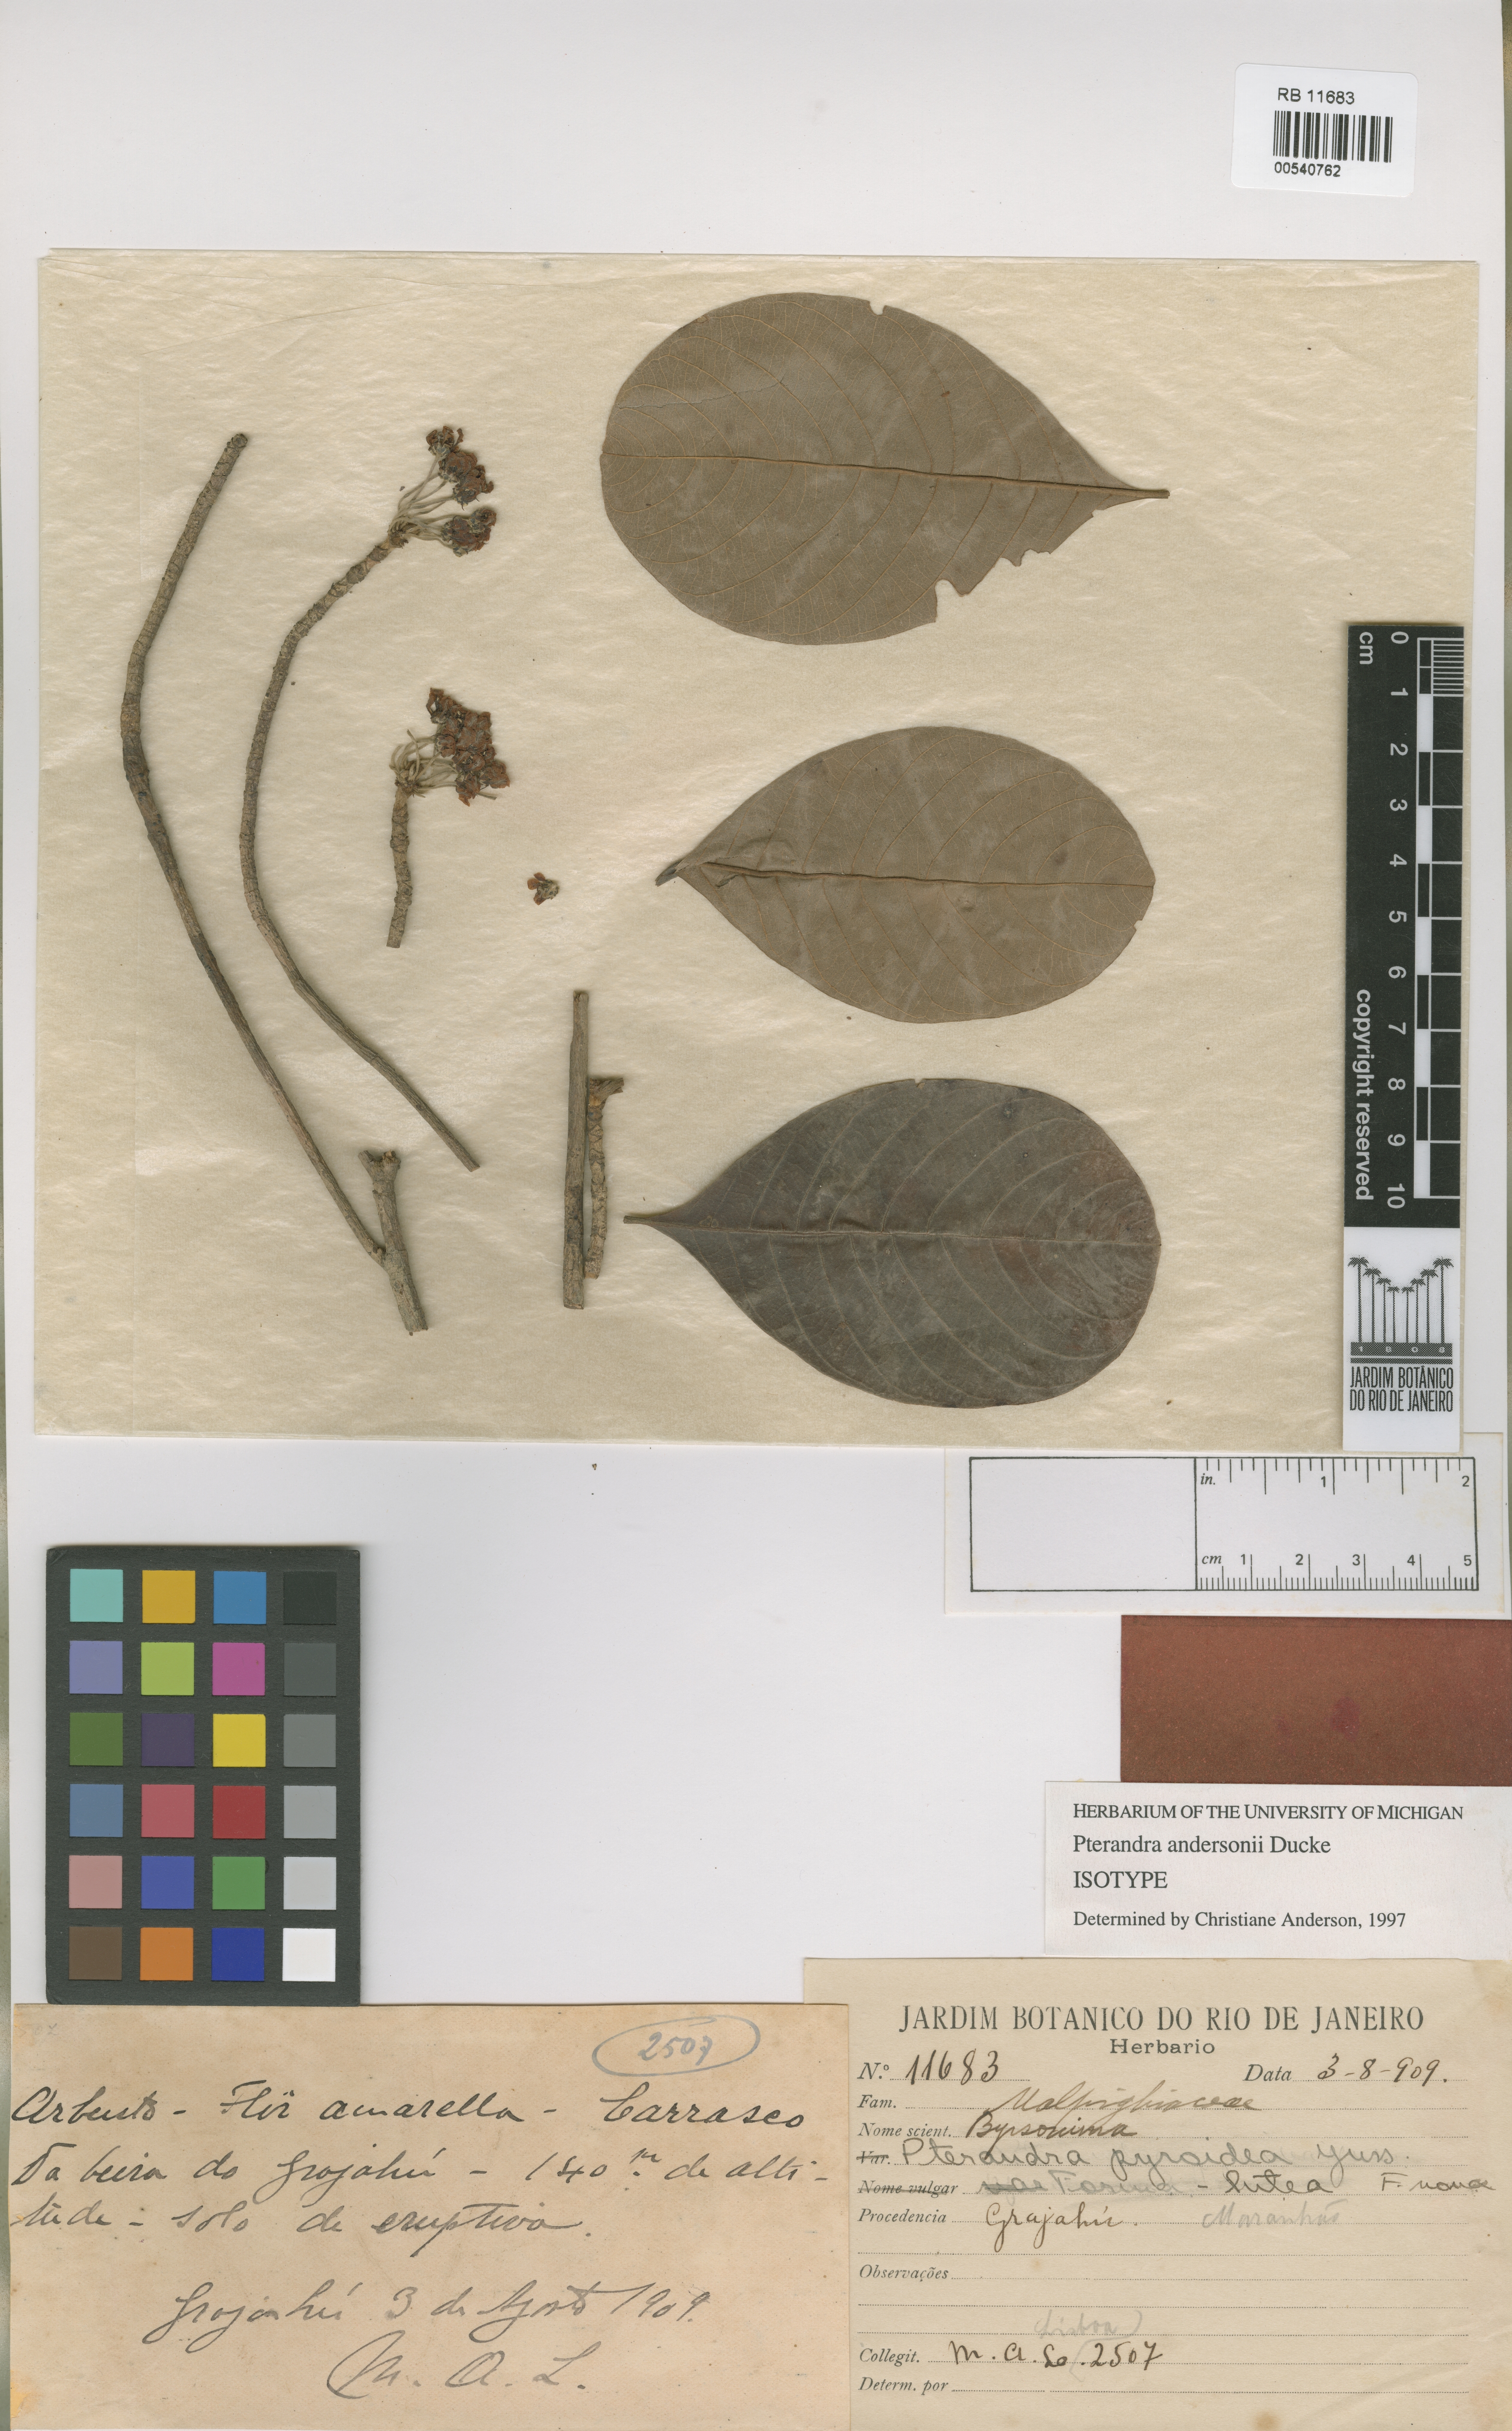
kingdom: Plantae
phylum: Tracheophyta
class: Magnoliopsida
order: Malpighiales
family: Malpighiaceae
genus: Pterandra
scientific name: Pterandra andersonii
